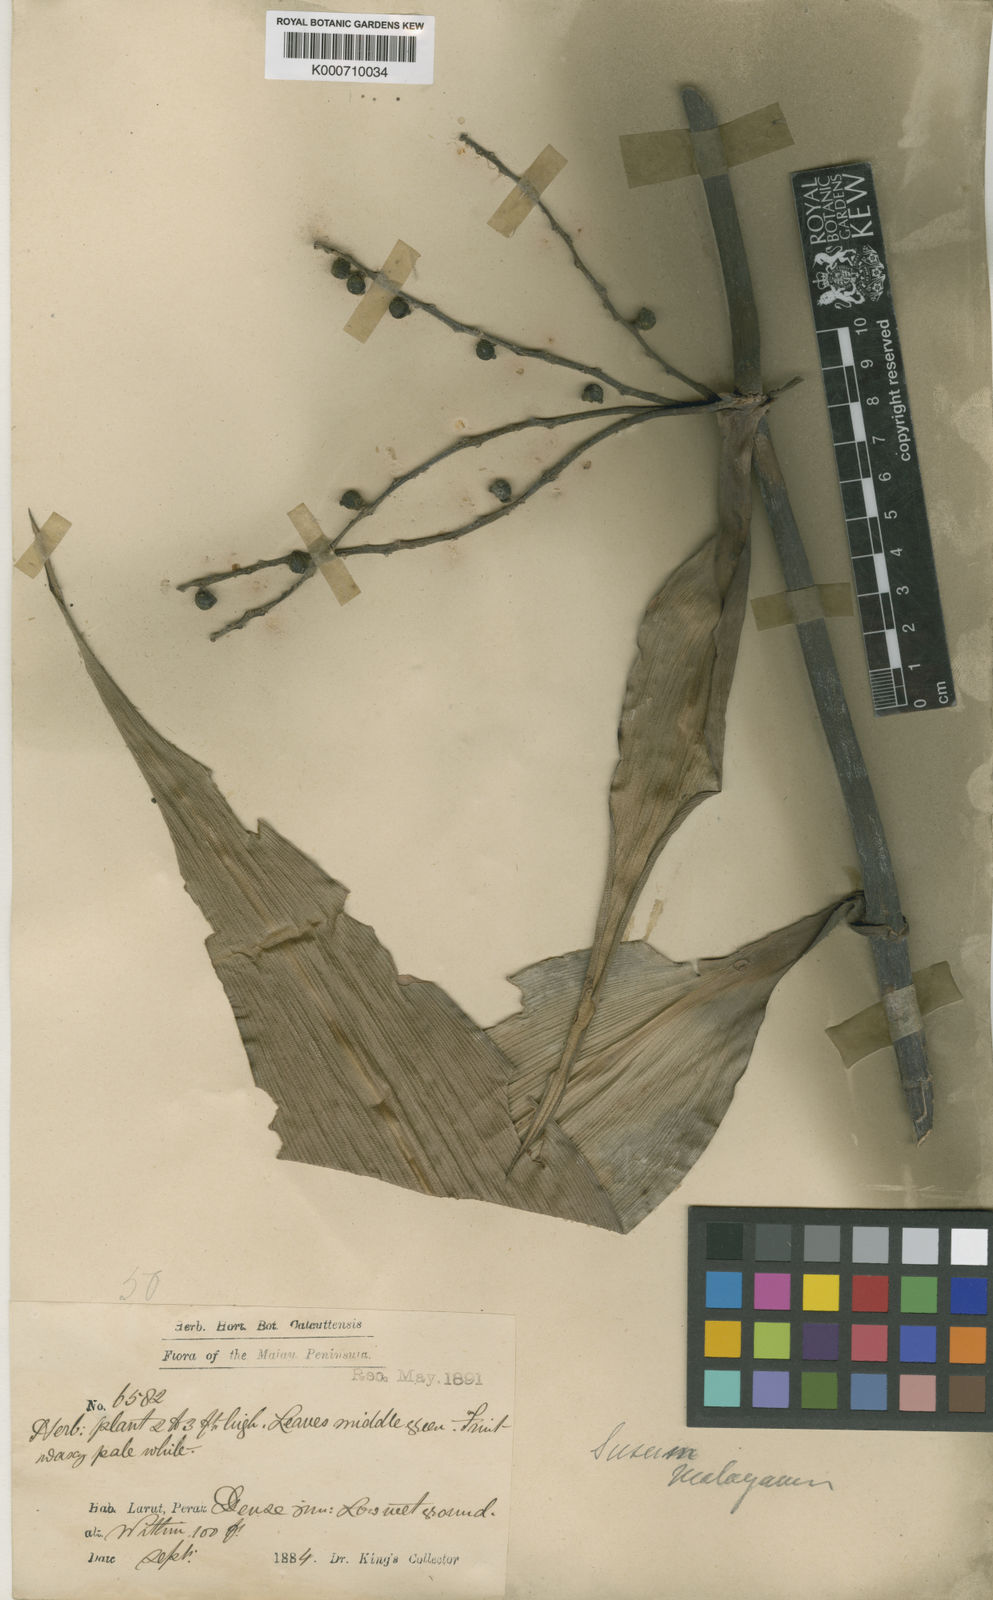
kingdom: Plantae
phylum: Tracheophyta
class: Liliopsida
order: Commelinales
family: Hanguanaceae
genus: Hanguana
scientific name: Hanguana malayana
